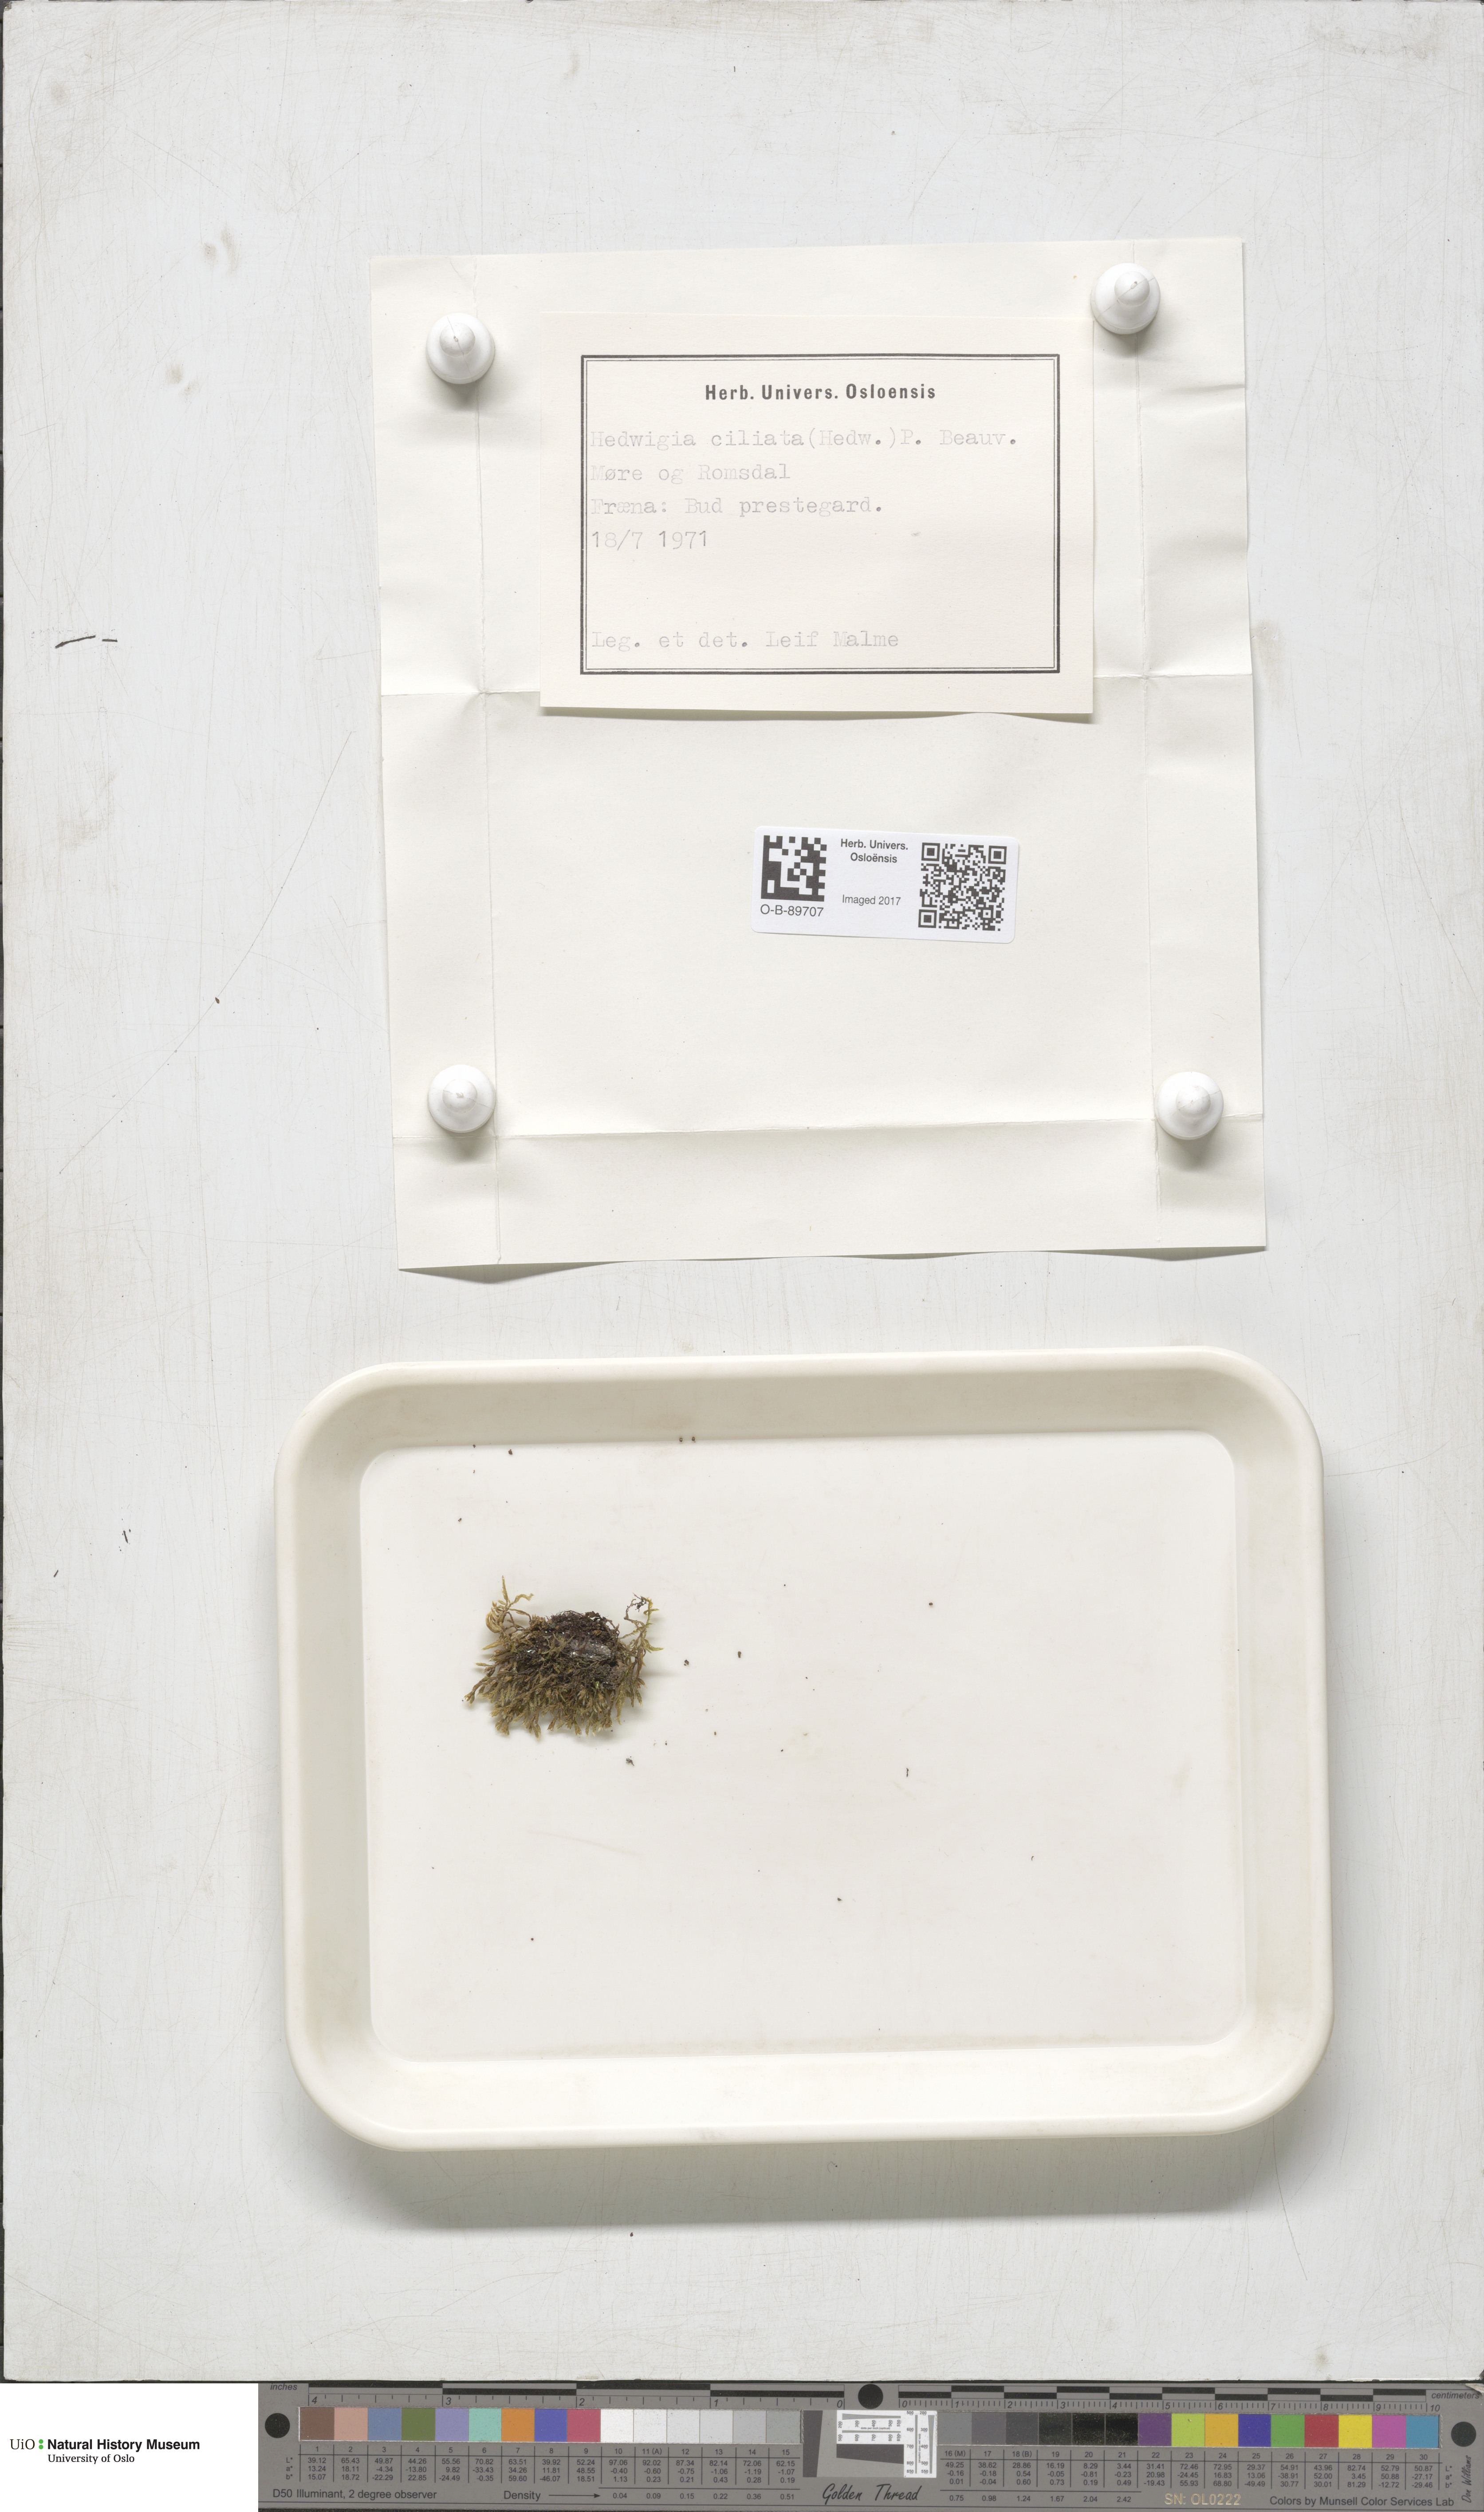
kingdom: Plantae
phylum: Bryophyta
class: Bryopsida
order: Hedwigiales
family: Hedwigiaceae
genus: Hedwigia
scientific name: Hedwigia ciliata
